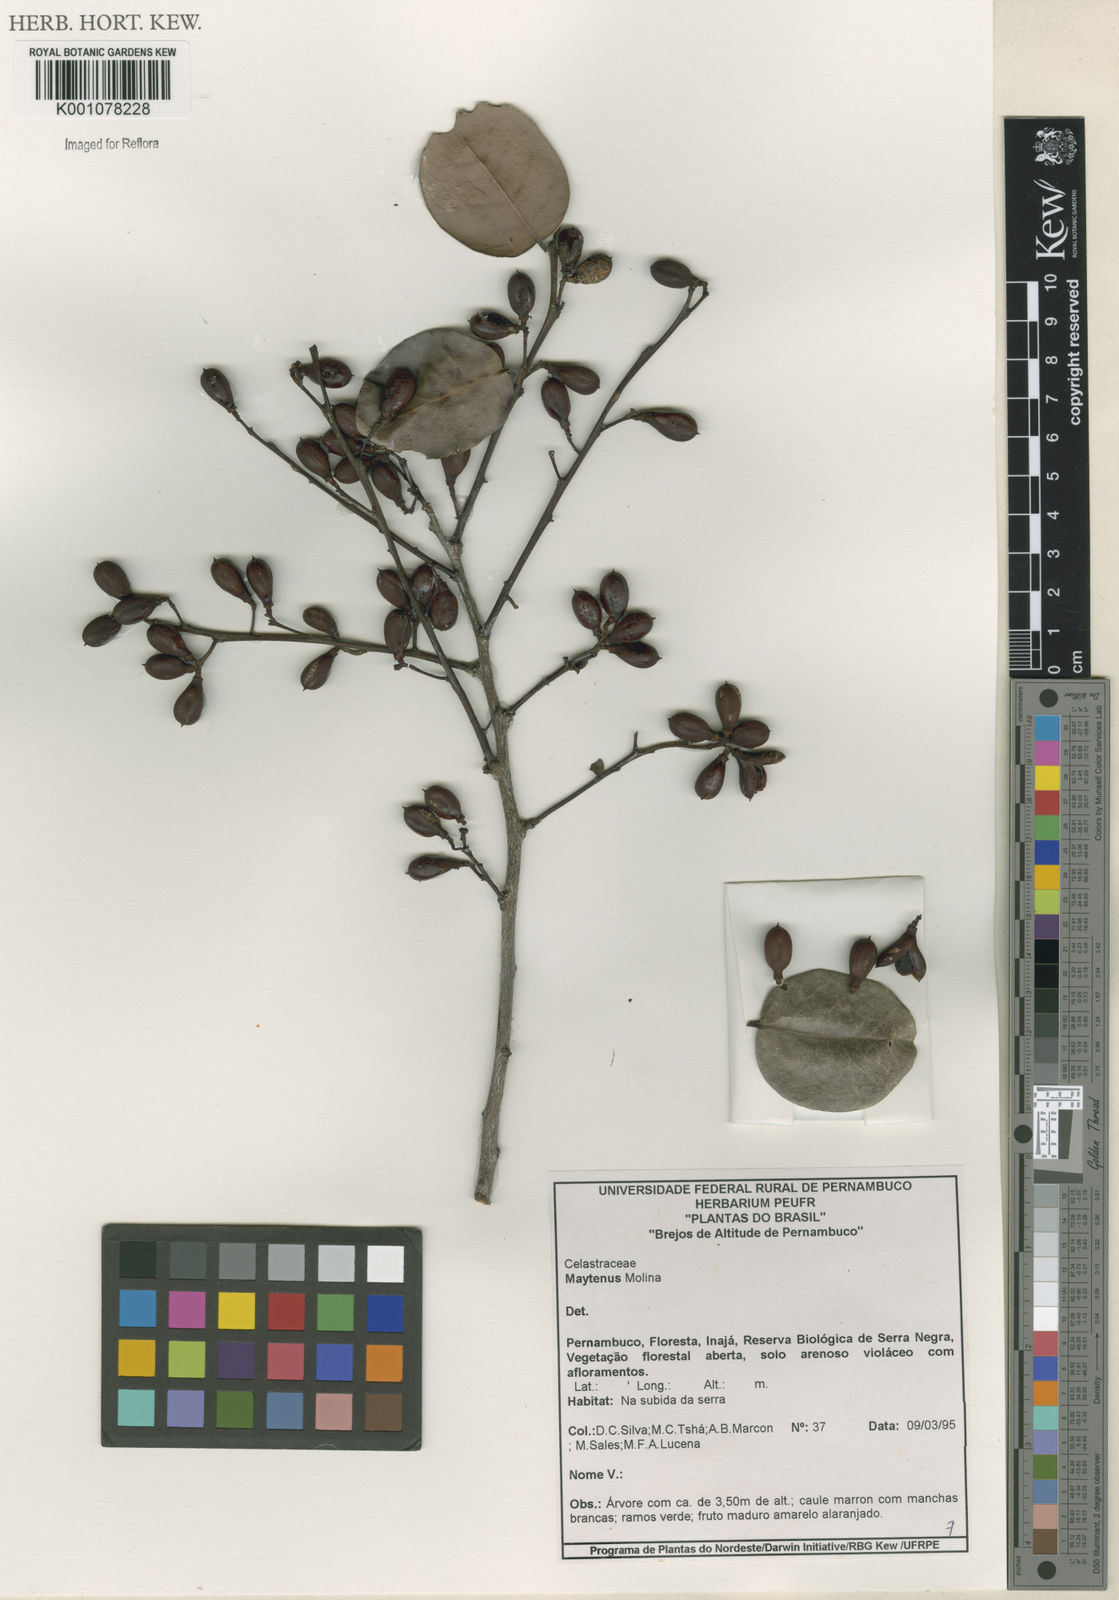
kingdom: Plantae
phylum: Tracheophyta
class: Magnoliopsida
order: Celastrales
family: Celastraceae
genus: Maytenus
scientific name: Maytenus
